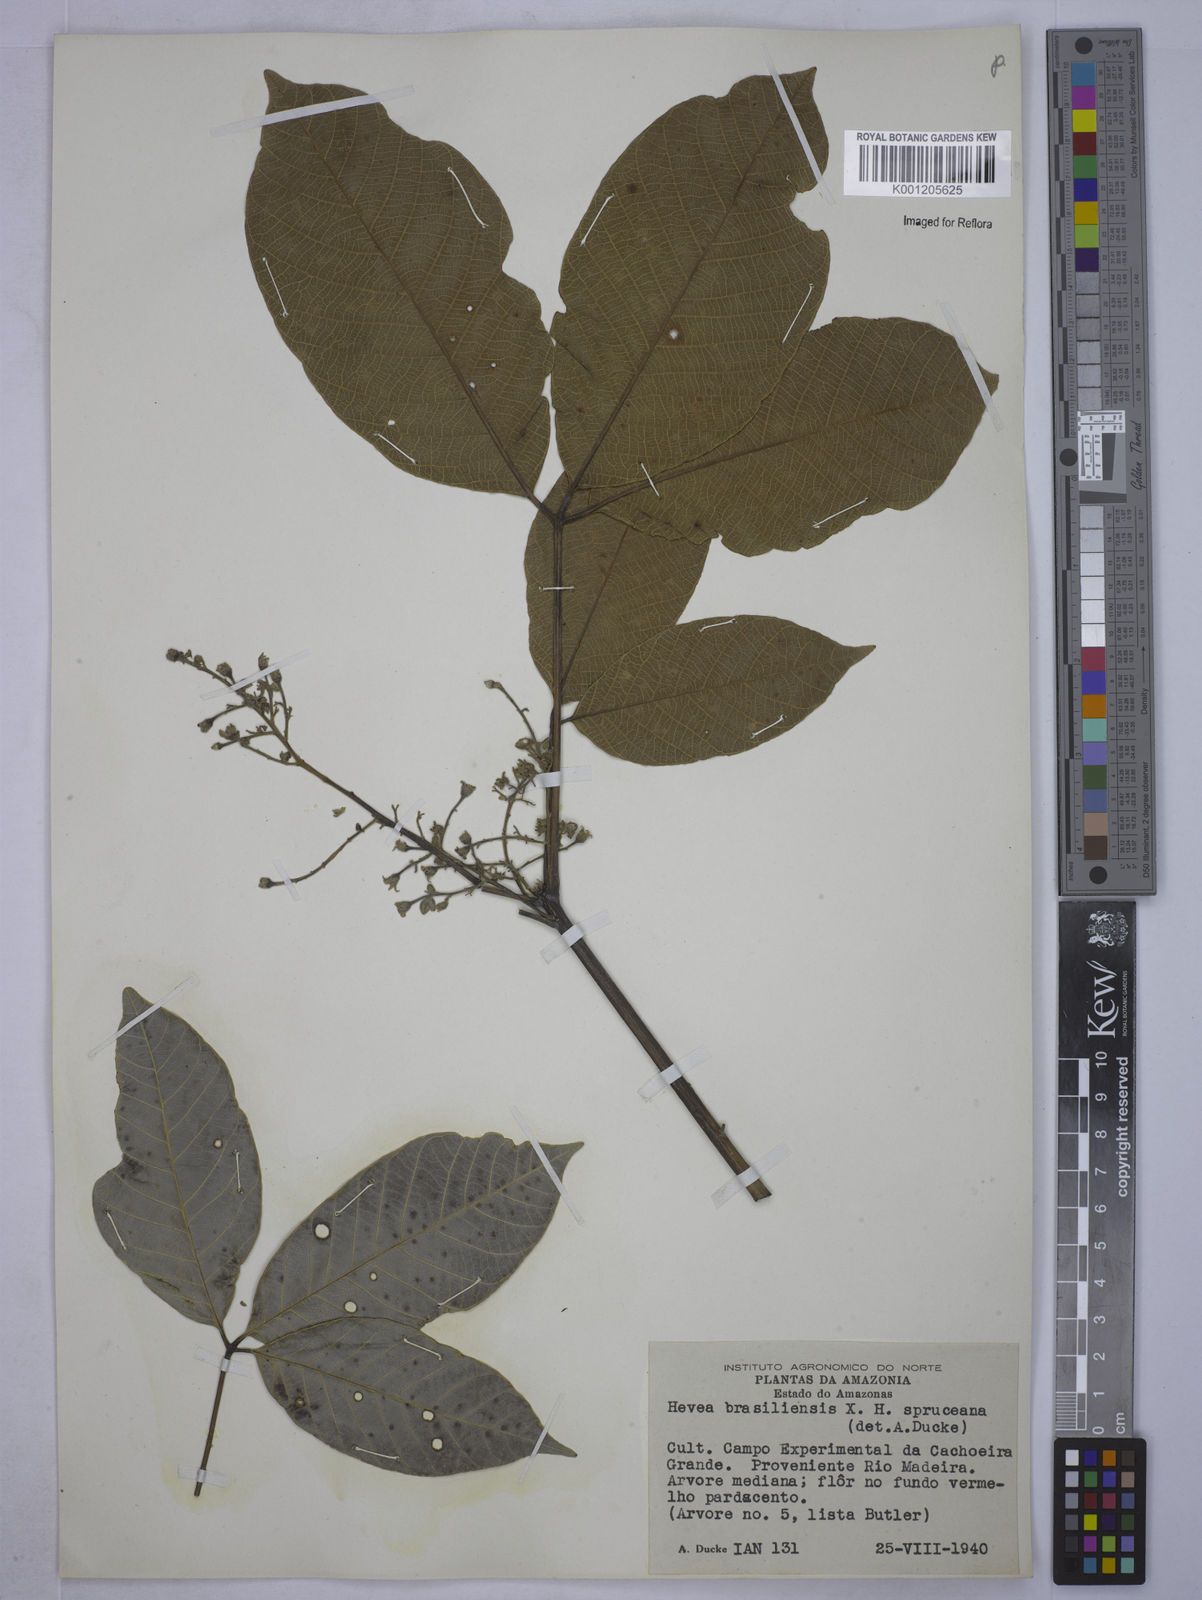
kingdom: Plantae
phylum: Tracheophyta
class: Magnoliopsida
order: Malpighiales
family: Euphorbiaceae
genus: Hevea
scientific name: Hevea
